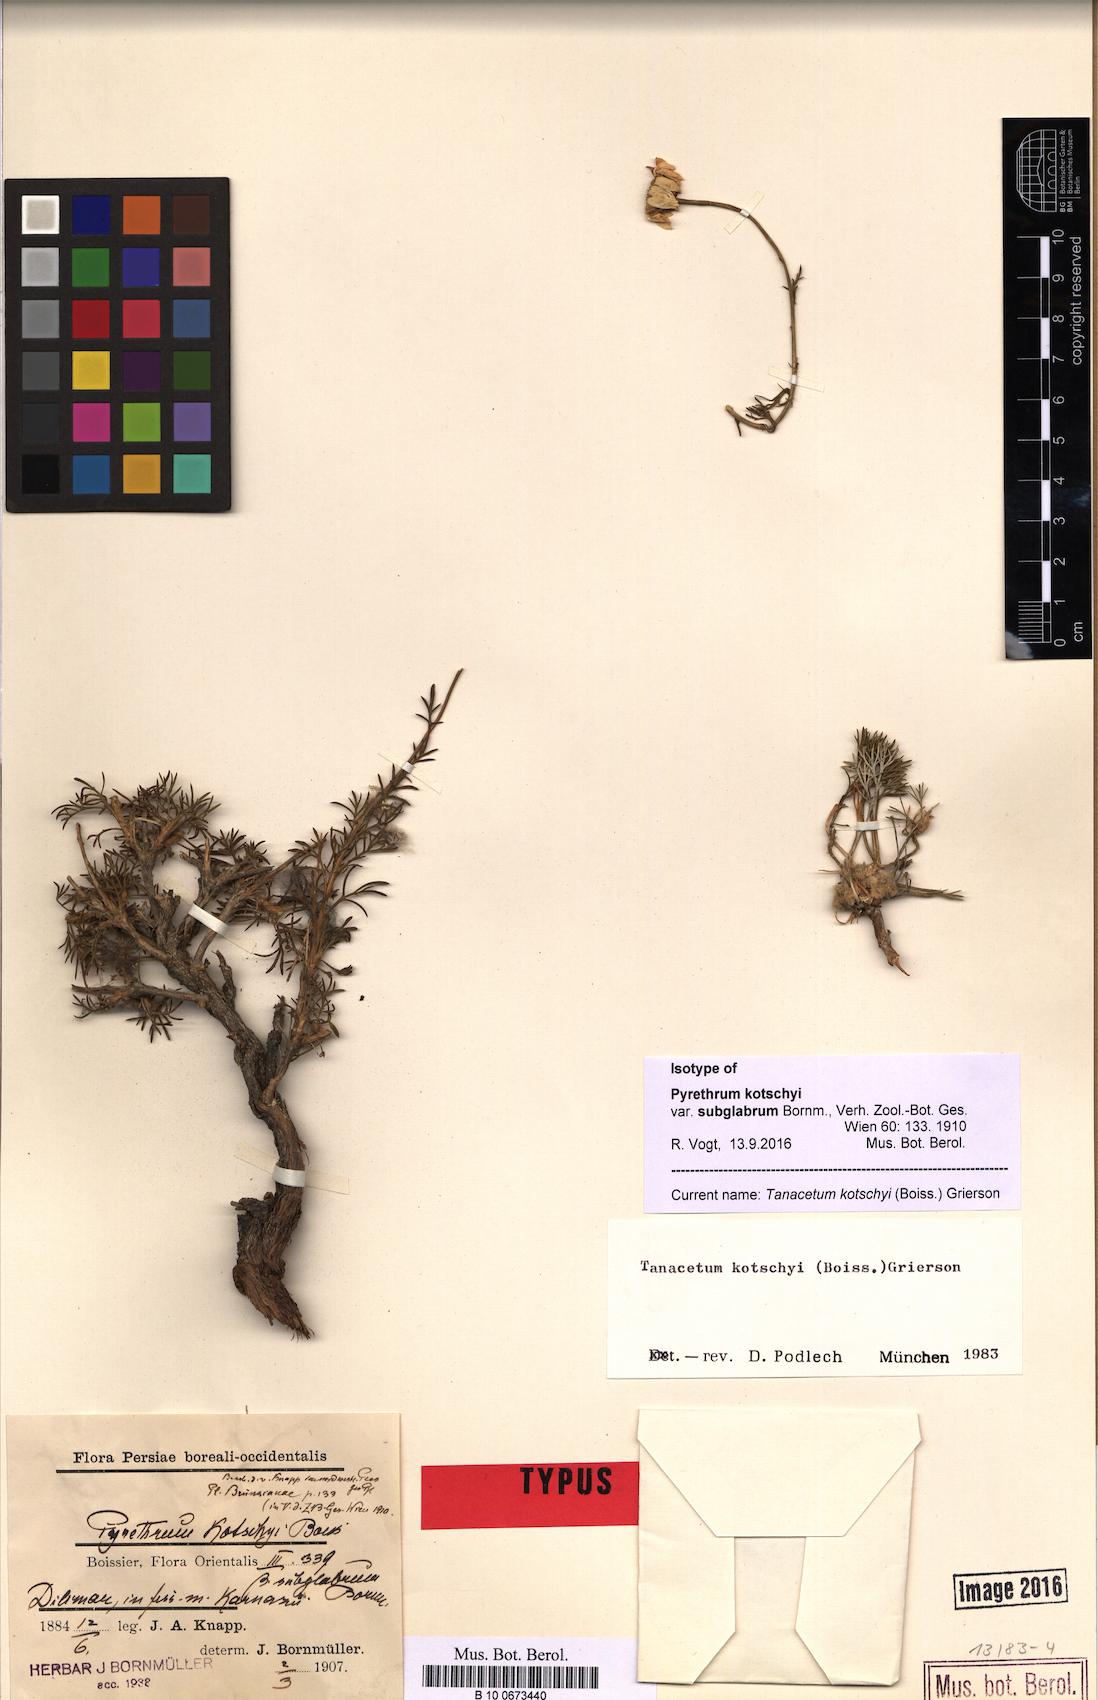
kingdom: Plantae
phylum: Tracheophyta
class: Magnoliopsida
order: Asterales
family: Asteraceae
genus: Tanacetum
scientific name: Tanacetum kotschyi
